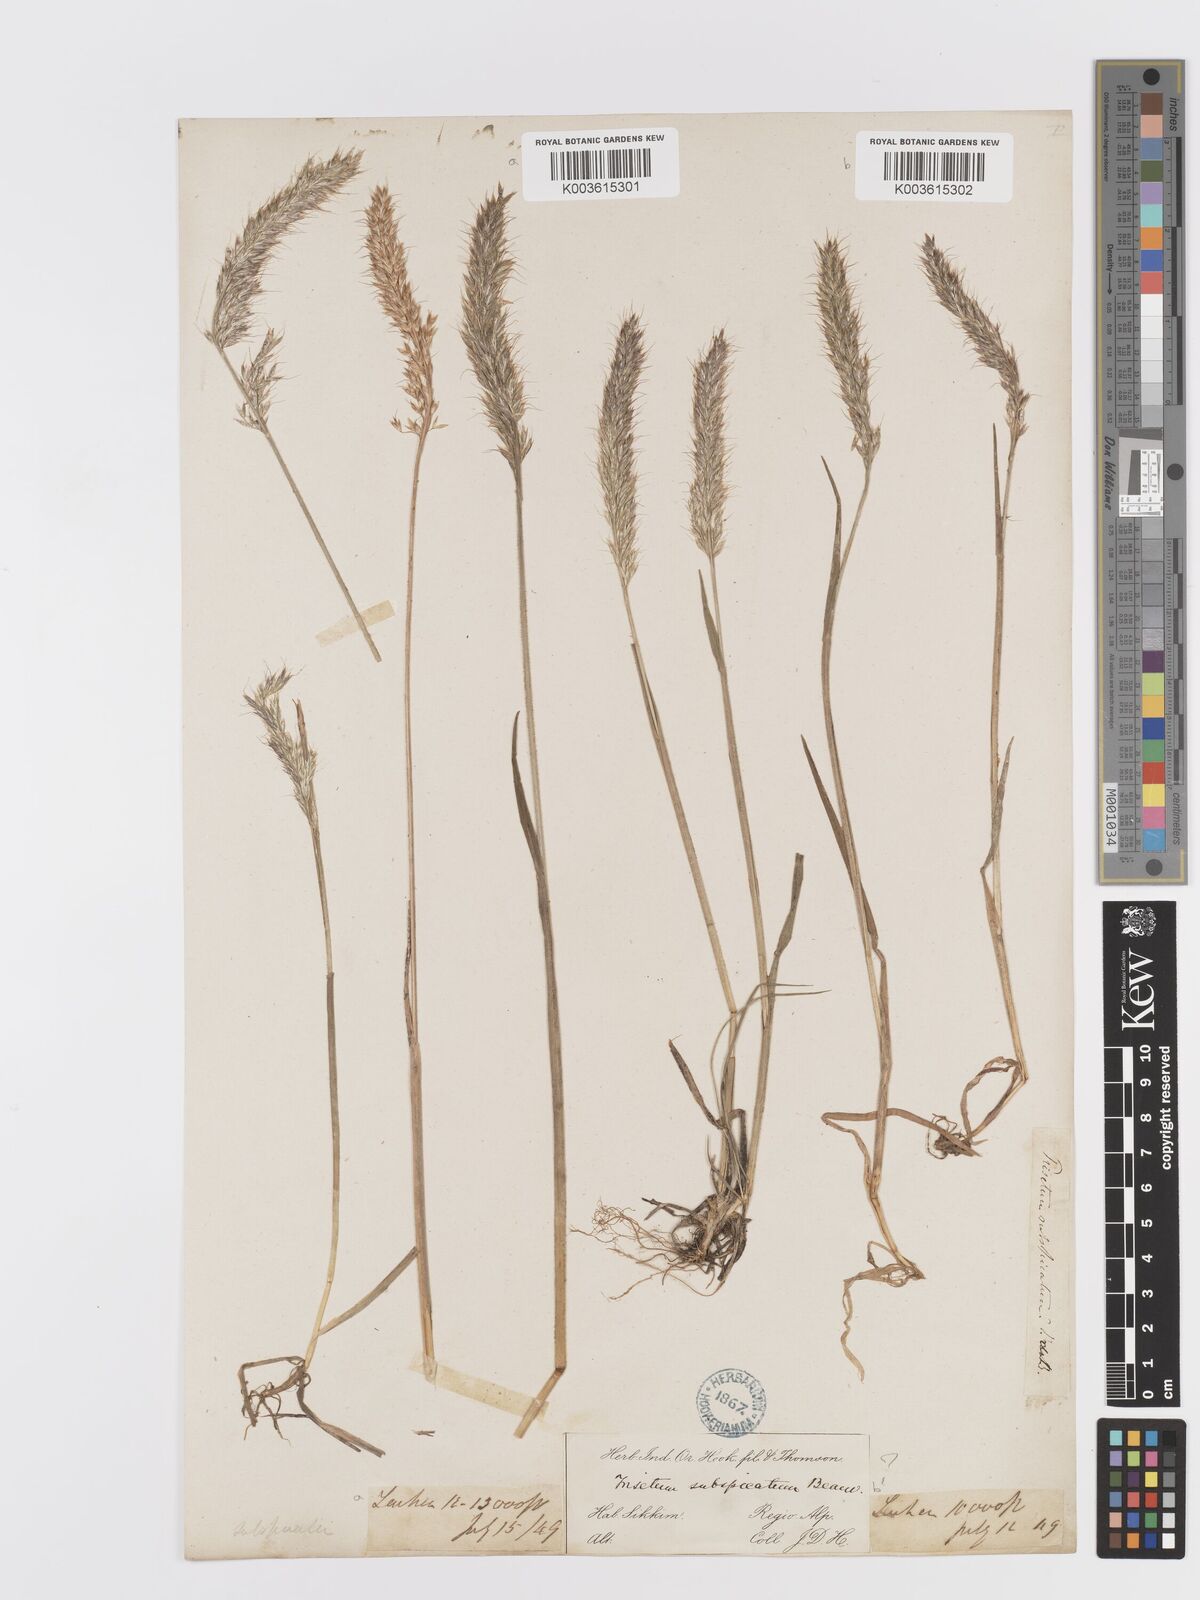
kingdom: Plantae
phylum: Tracheophyta
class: Liliopsida
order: Poales
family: Poaceae
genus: Koeleria
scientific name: Koeleria spicata
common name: Mountain trisetum
